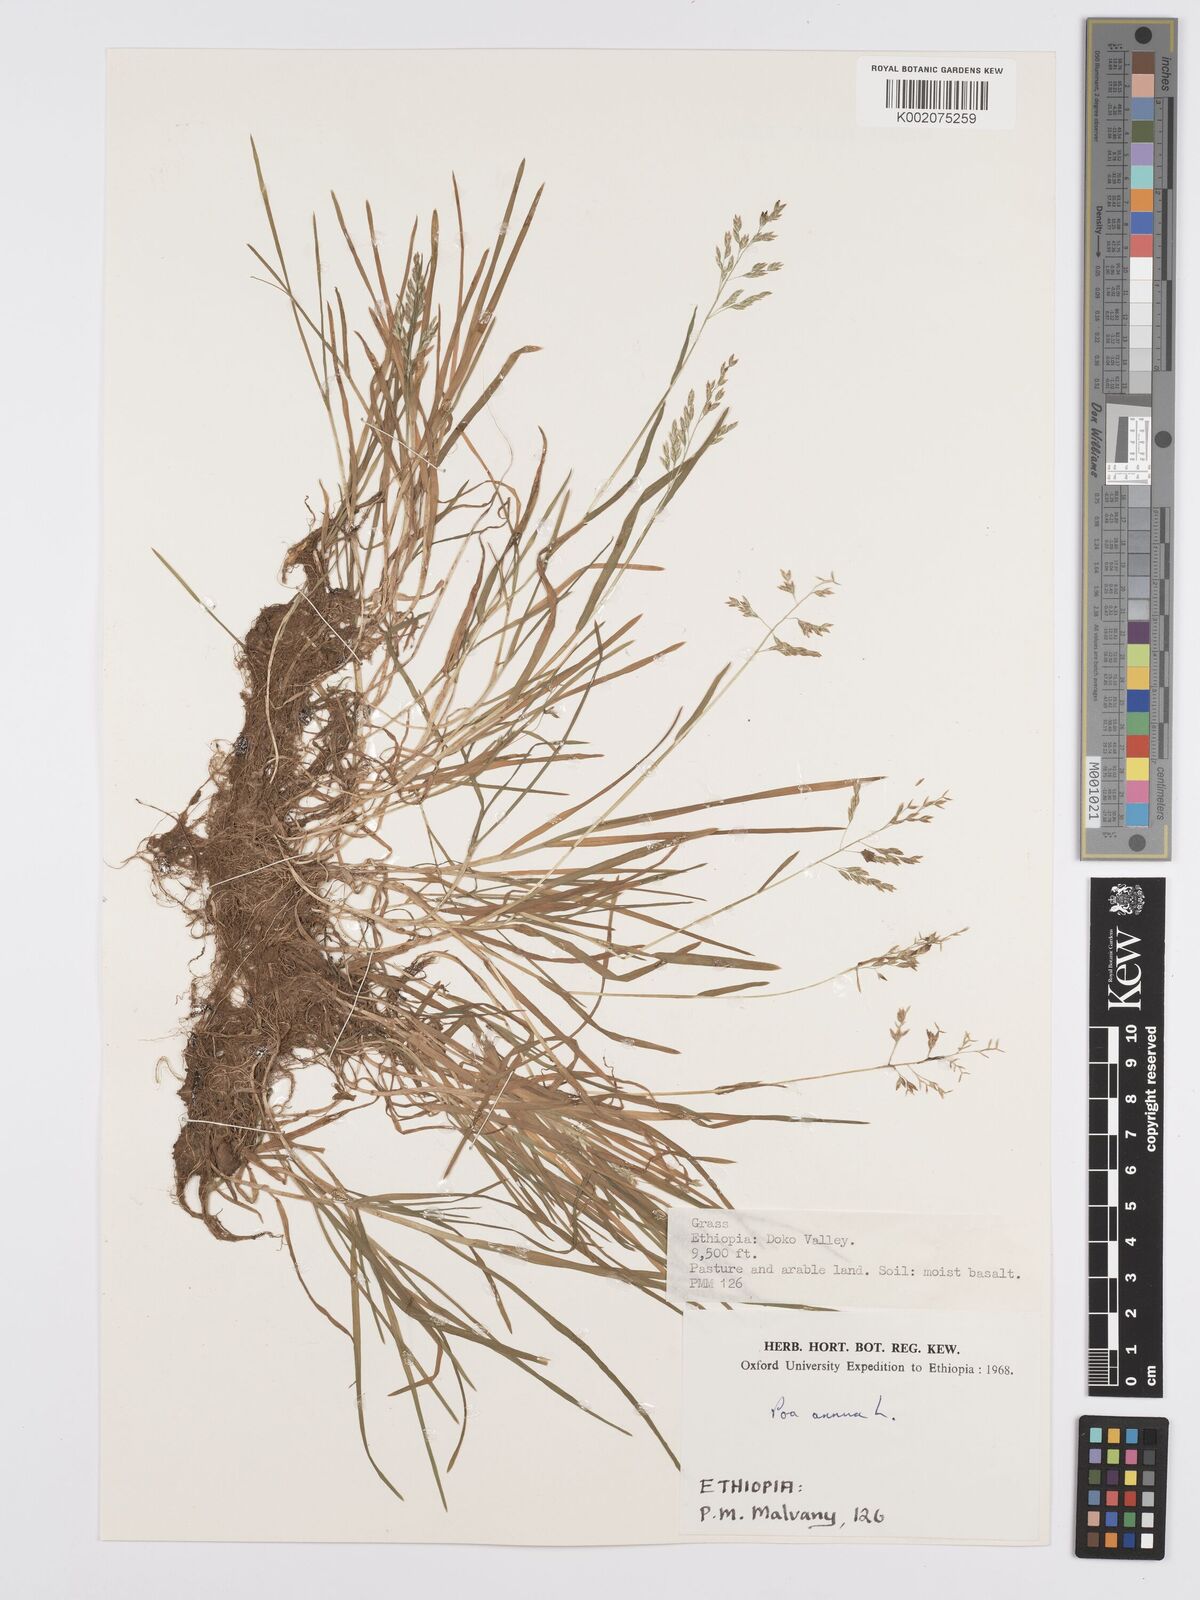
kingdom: Plantae
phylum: Tracheophyta
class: Liliopsida
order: Poales
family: Poaceae
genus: Poa
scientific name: Poa annua
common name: Annual bluegrass
